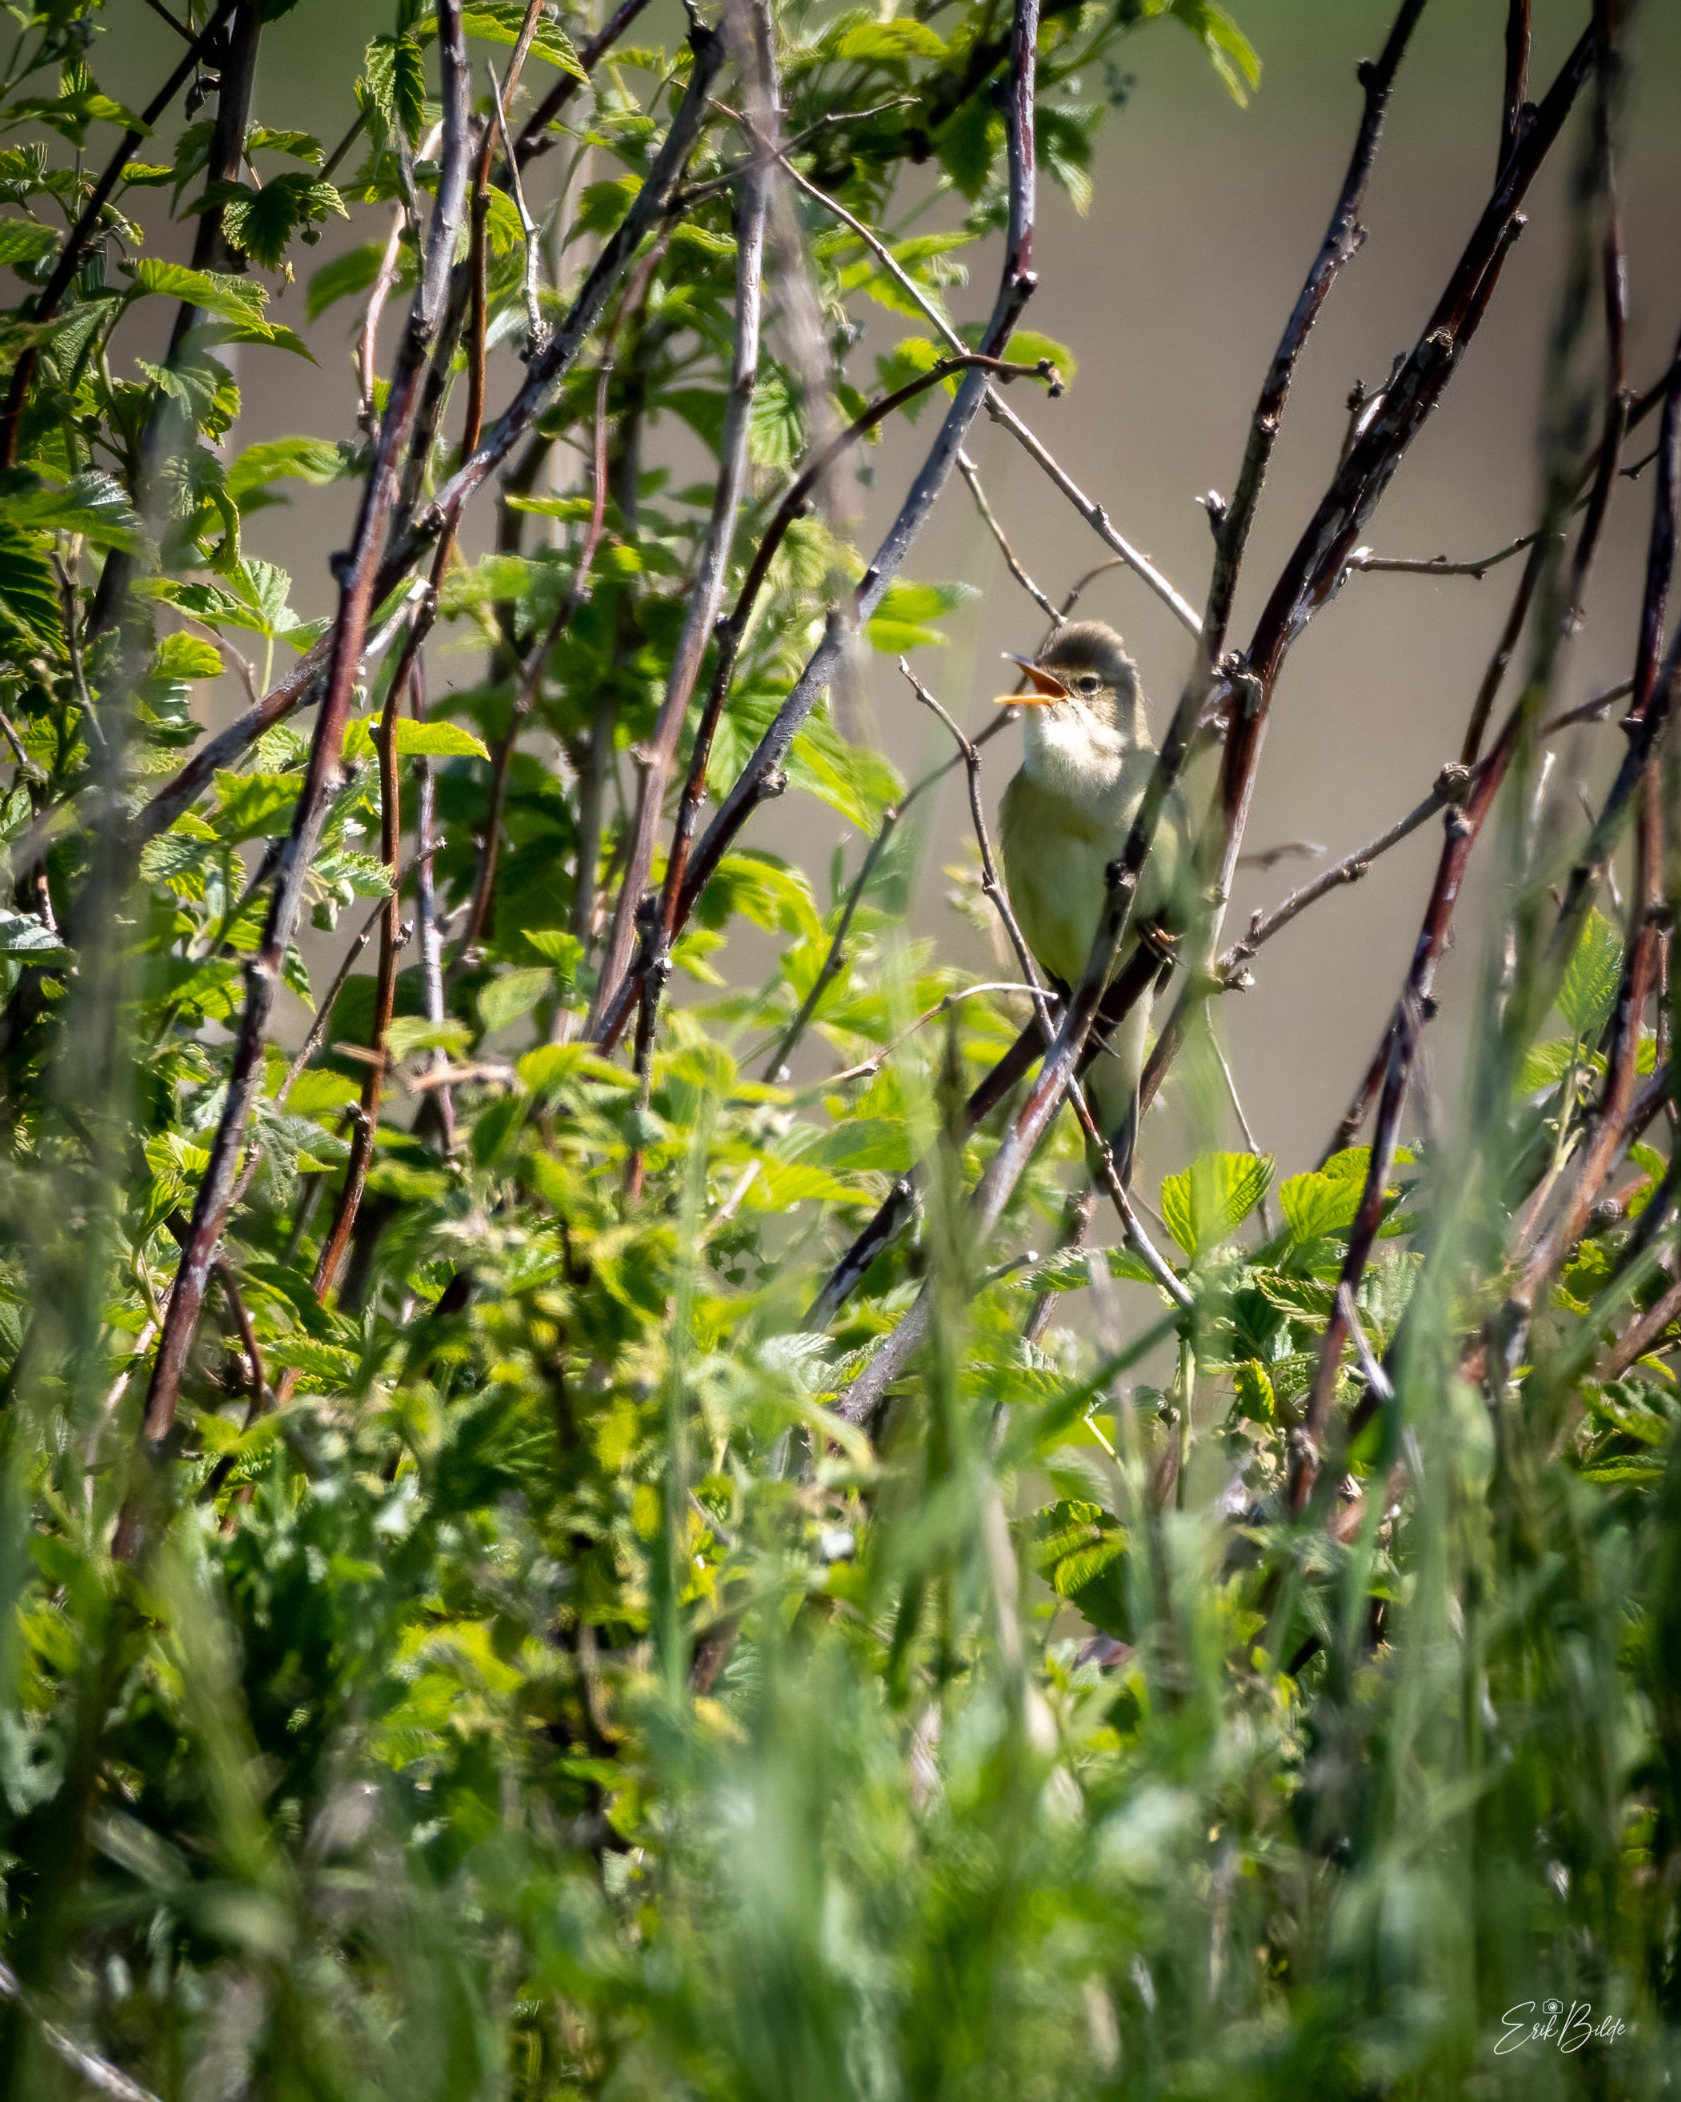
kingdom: Animalia
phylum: Chordata
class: Aves
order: Passeriformes
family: Acrocephalidae
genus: Acrocephalus
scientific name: Acrocephalus palustris
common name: Kærsanger
